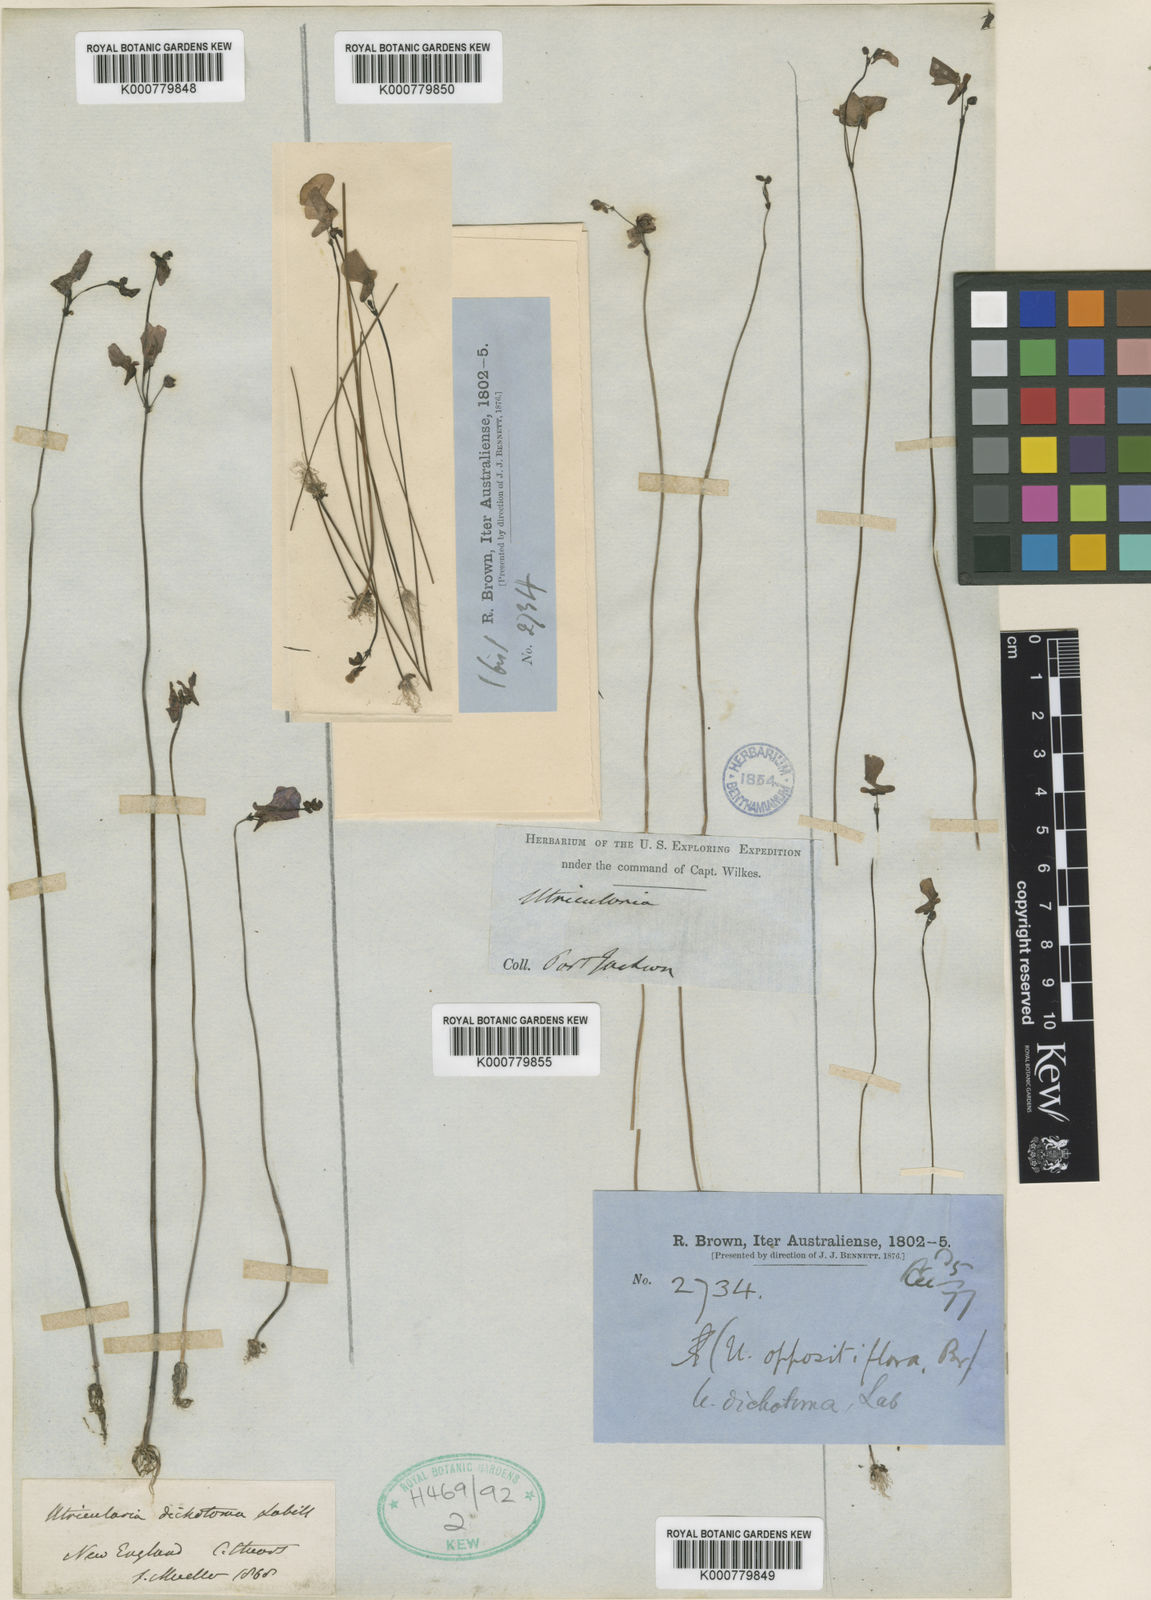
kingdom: Plantae
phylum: Tracheophyta
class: Magnoliopsida
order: Lamiales
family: Lentibulariaceae
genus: Utricularia
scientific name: Utricularia dichotoma
